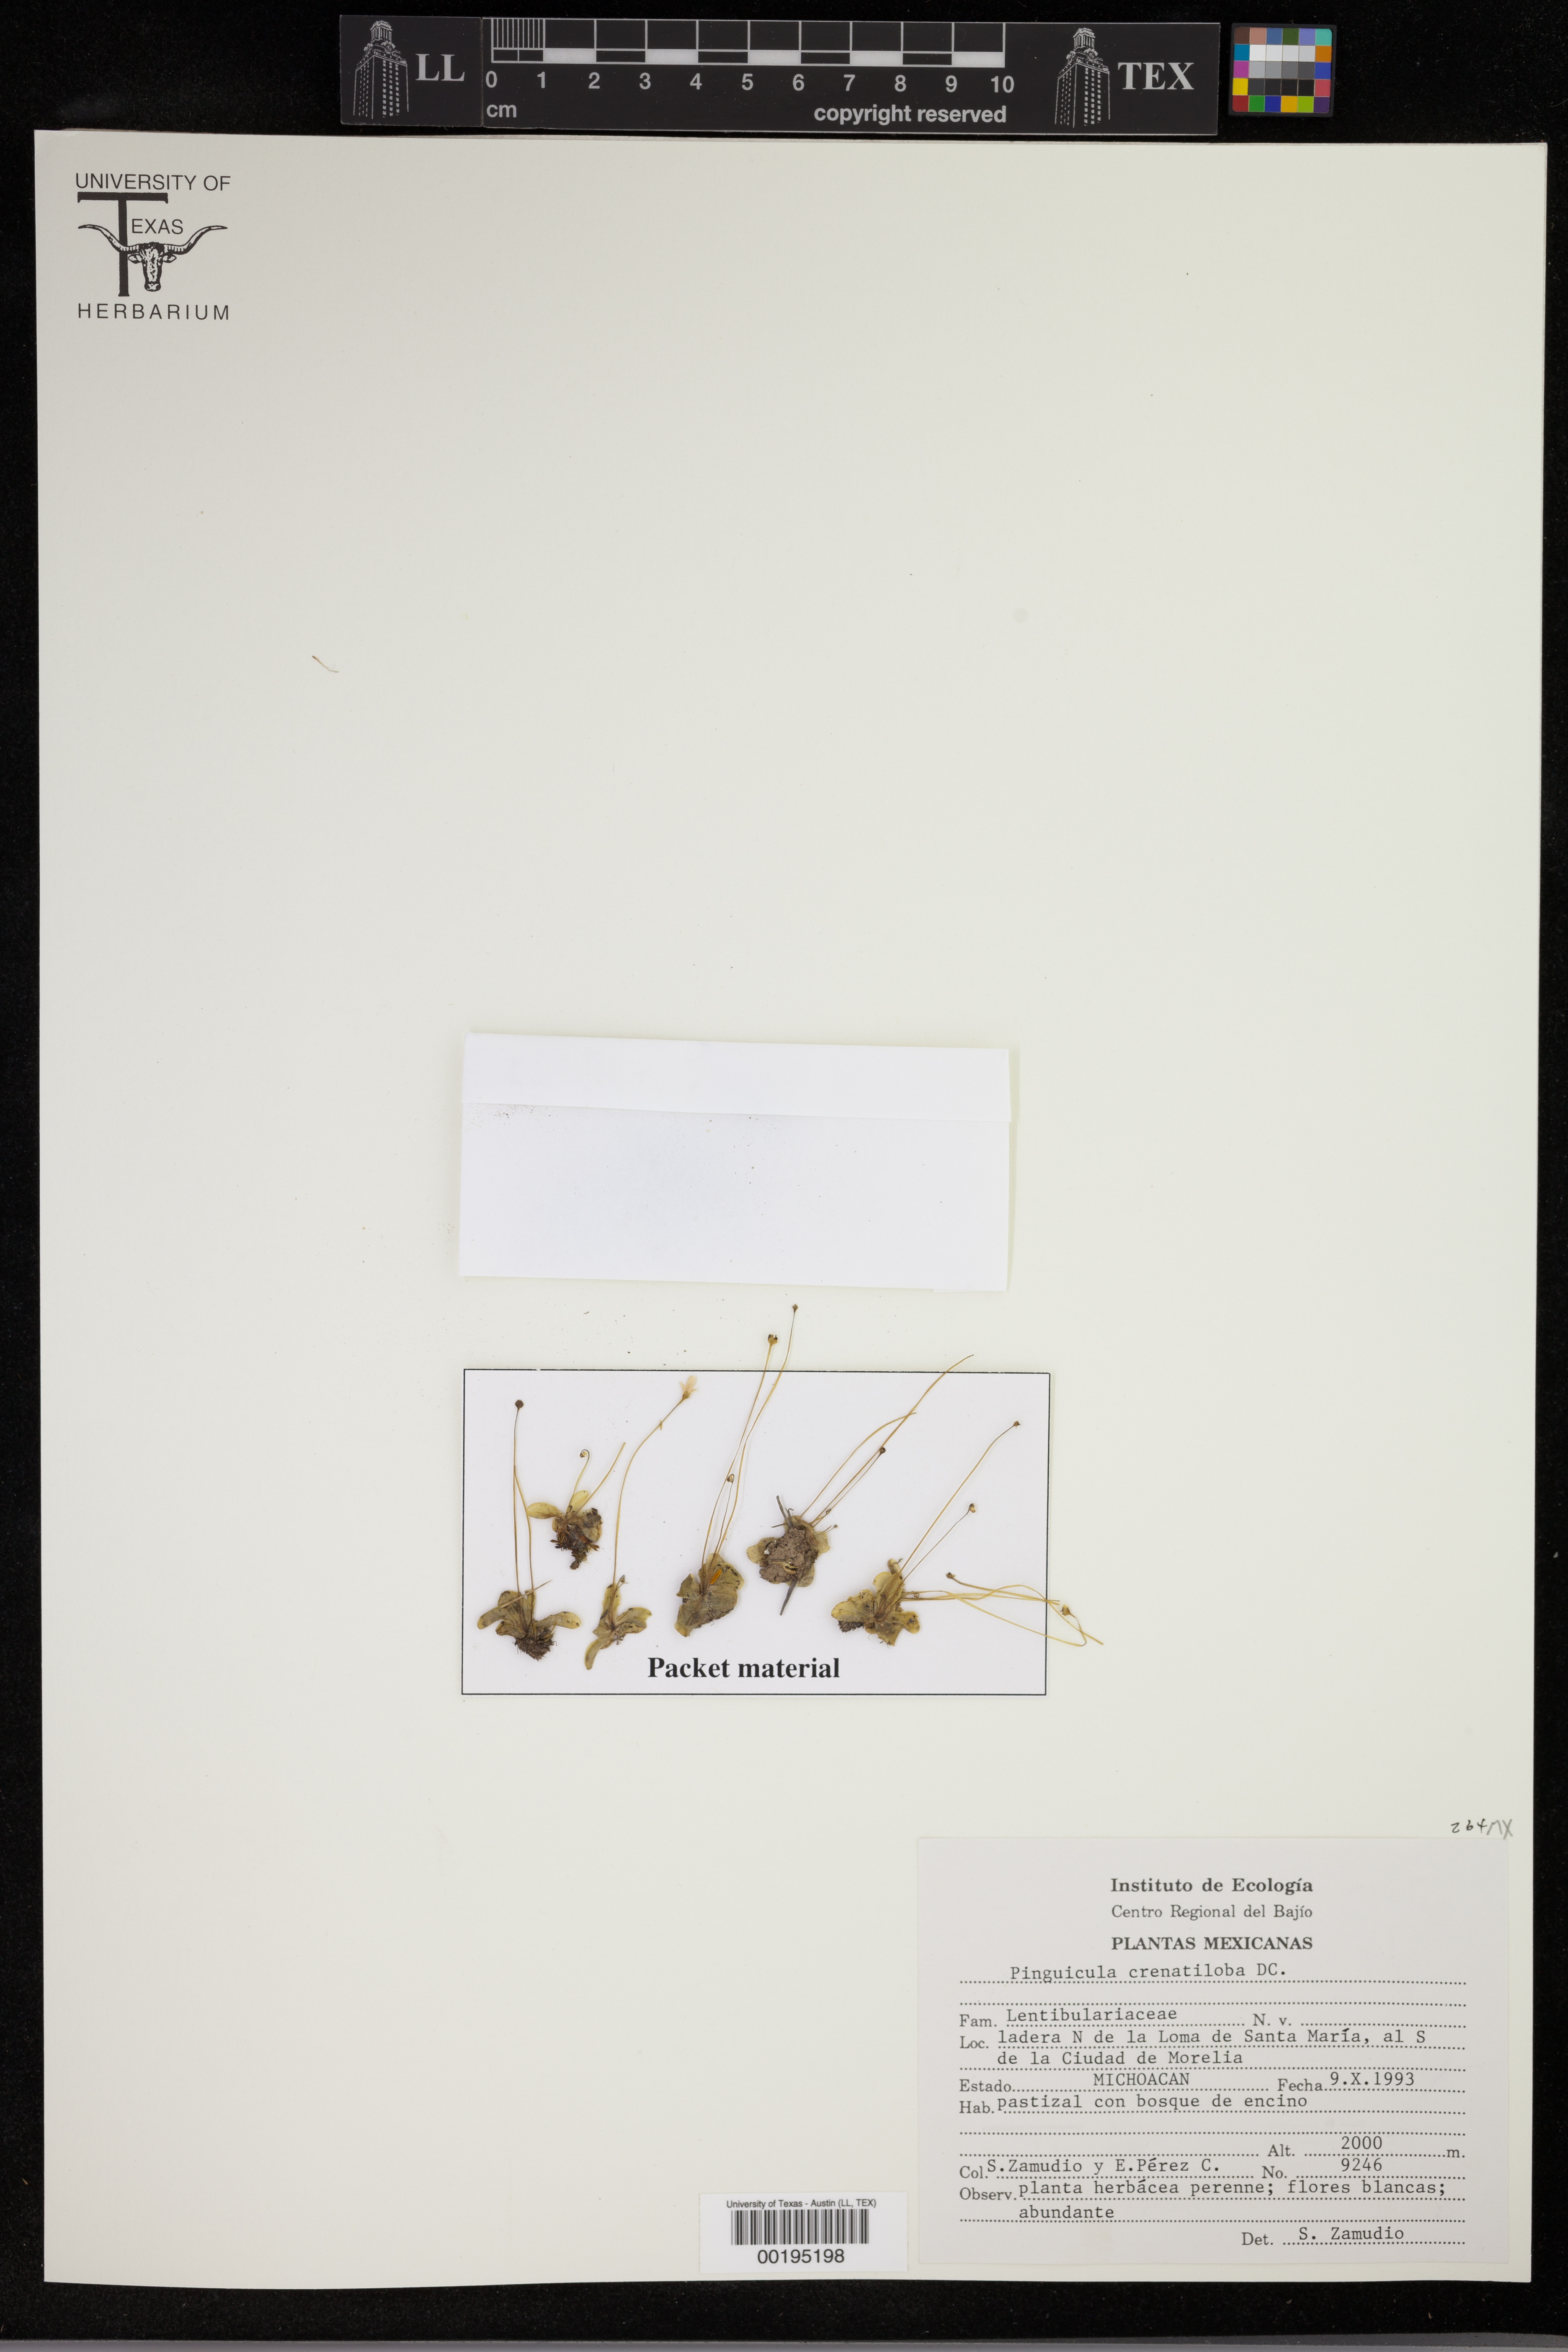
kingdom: Plantae
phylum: Tracheophyta
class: Magnoliopsida
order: Lamiales
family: Lentibulariaceae
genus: Pinguicula
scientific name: Pinguicula crenatiloba
